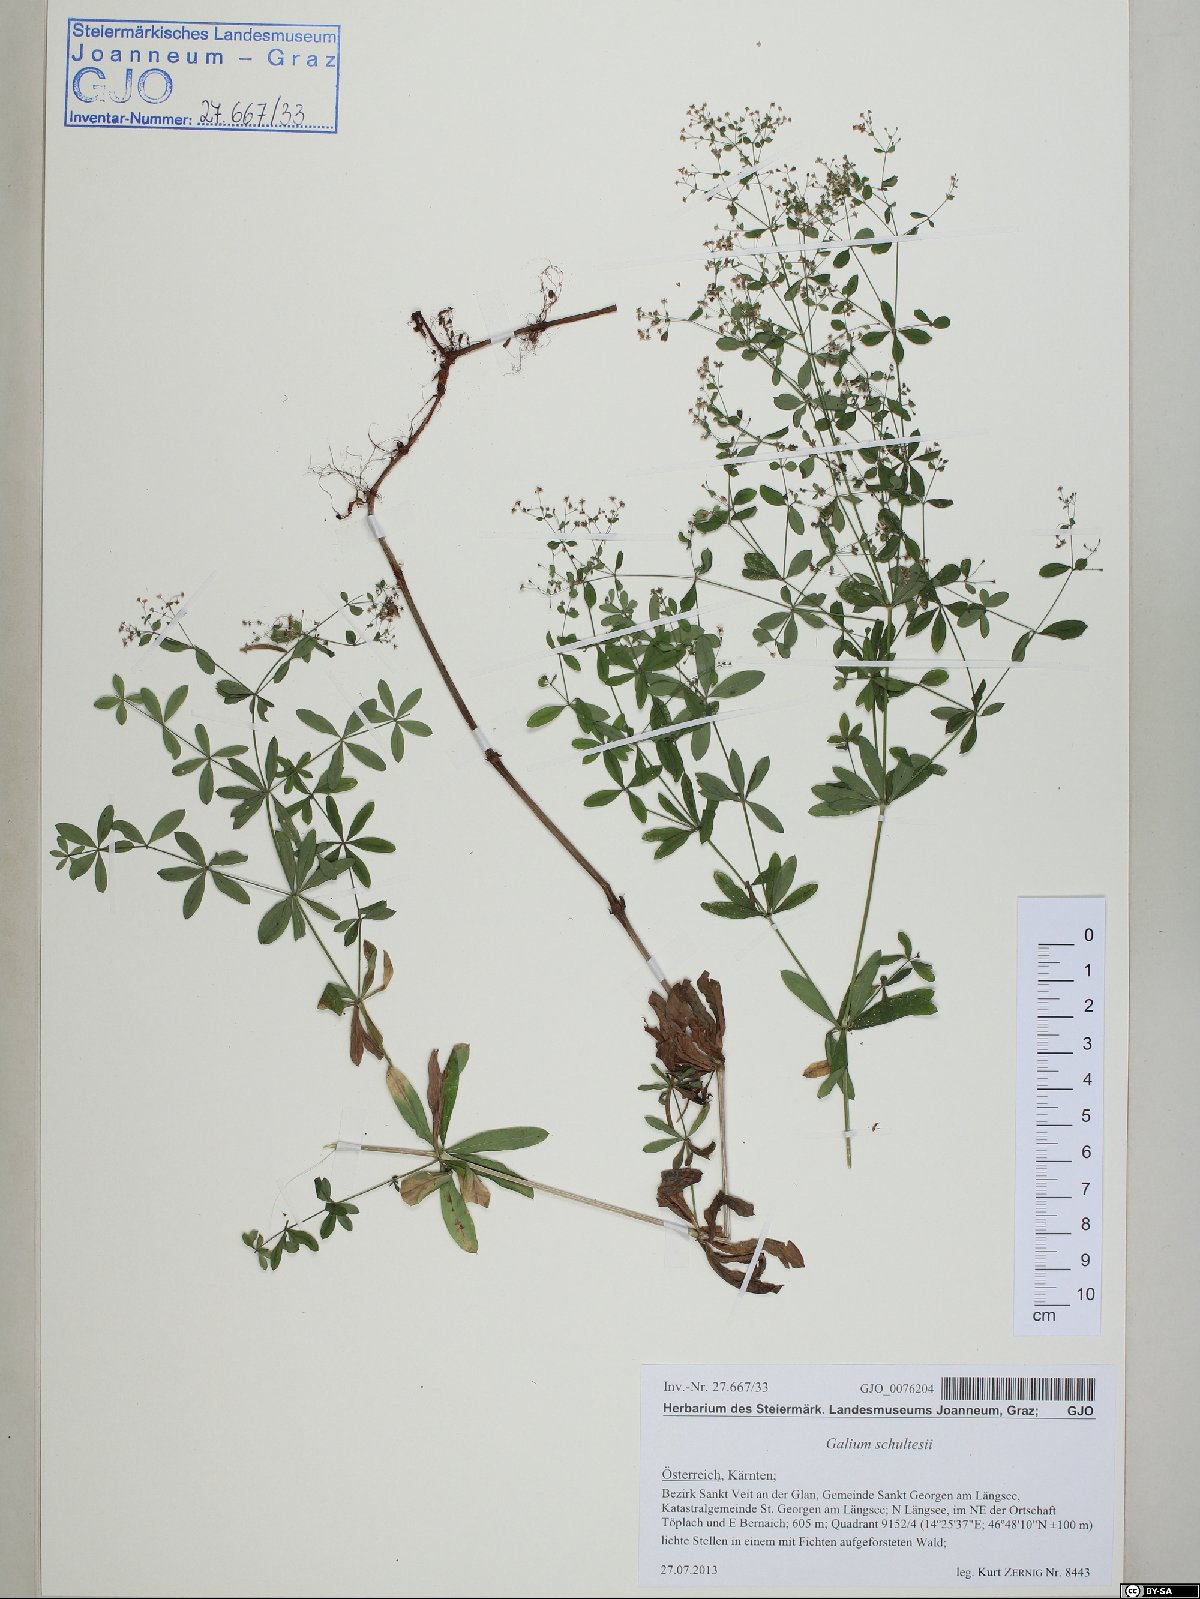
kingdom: Plantae
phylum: Tracheophyta
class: Magnoliopsida
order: Gentianales
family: Rubiaceae
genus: Galium
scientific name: Galium intermedium
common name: Bedstraw
